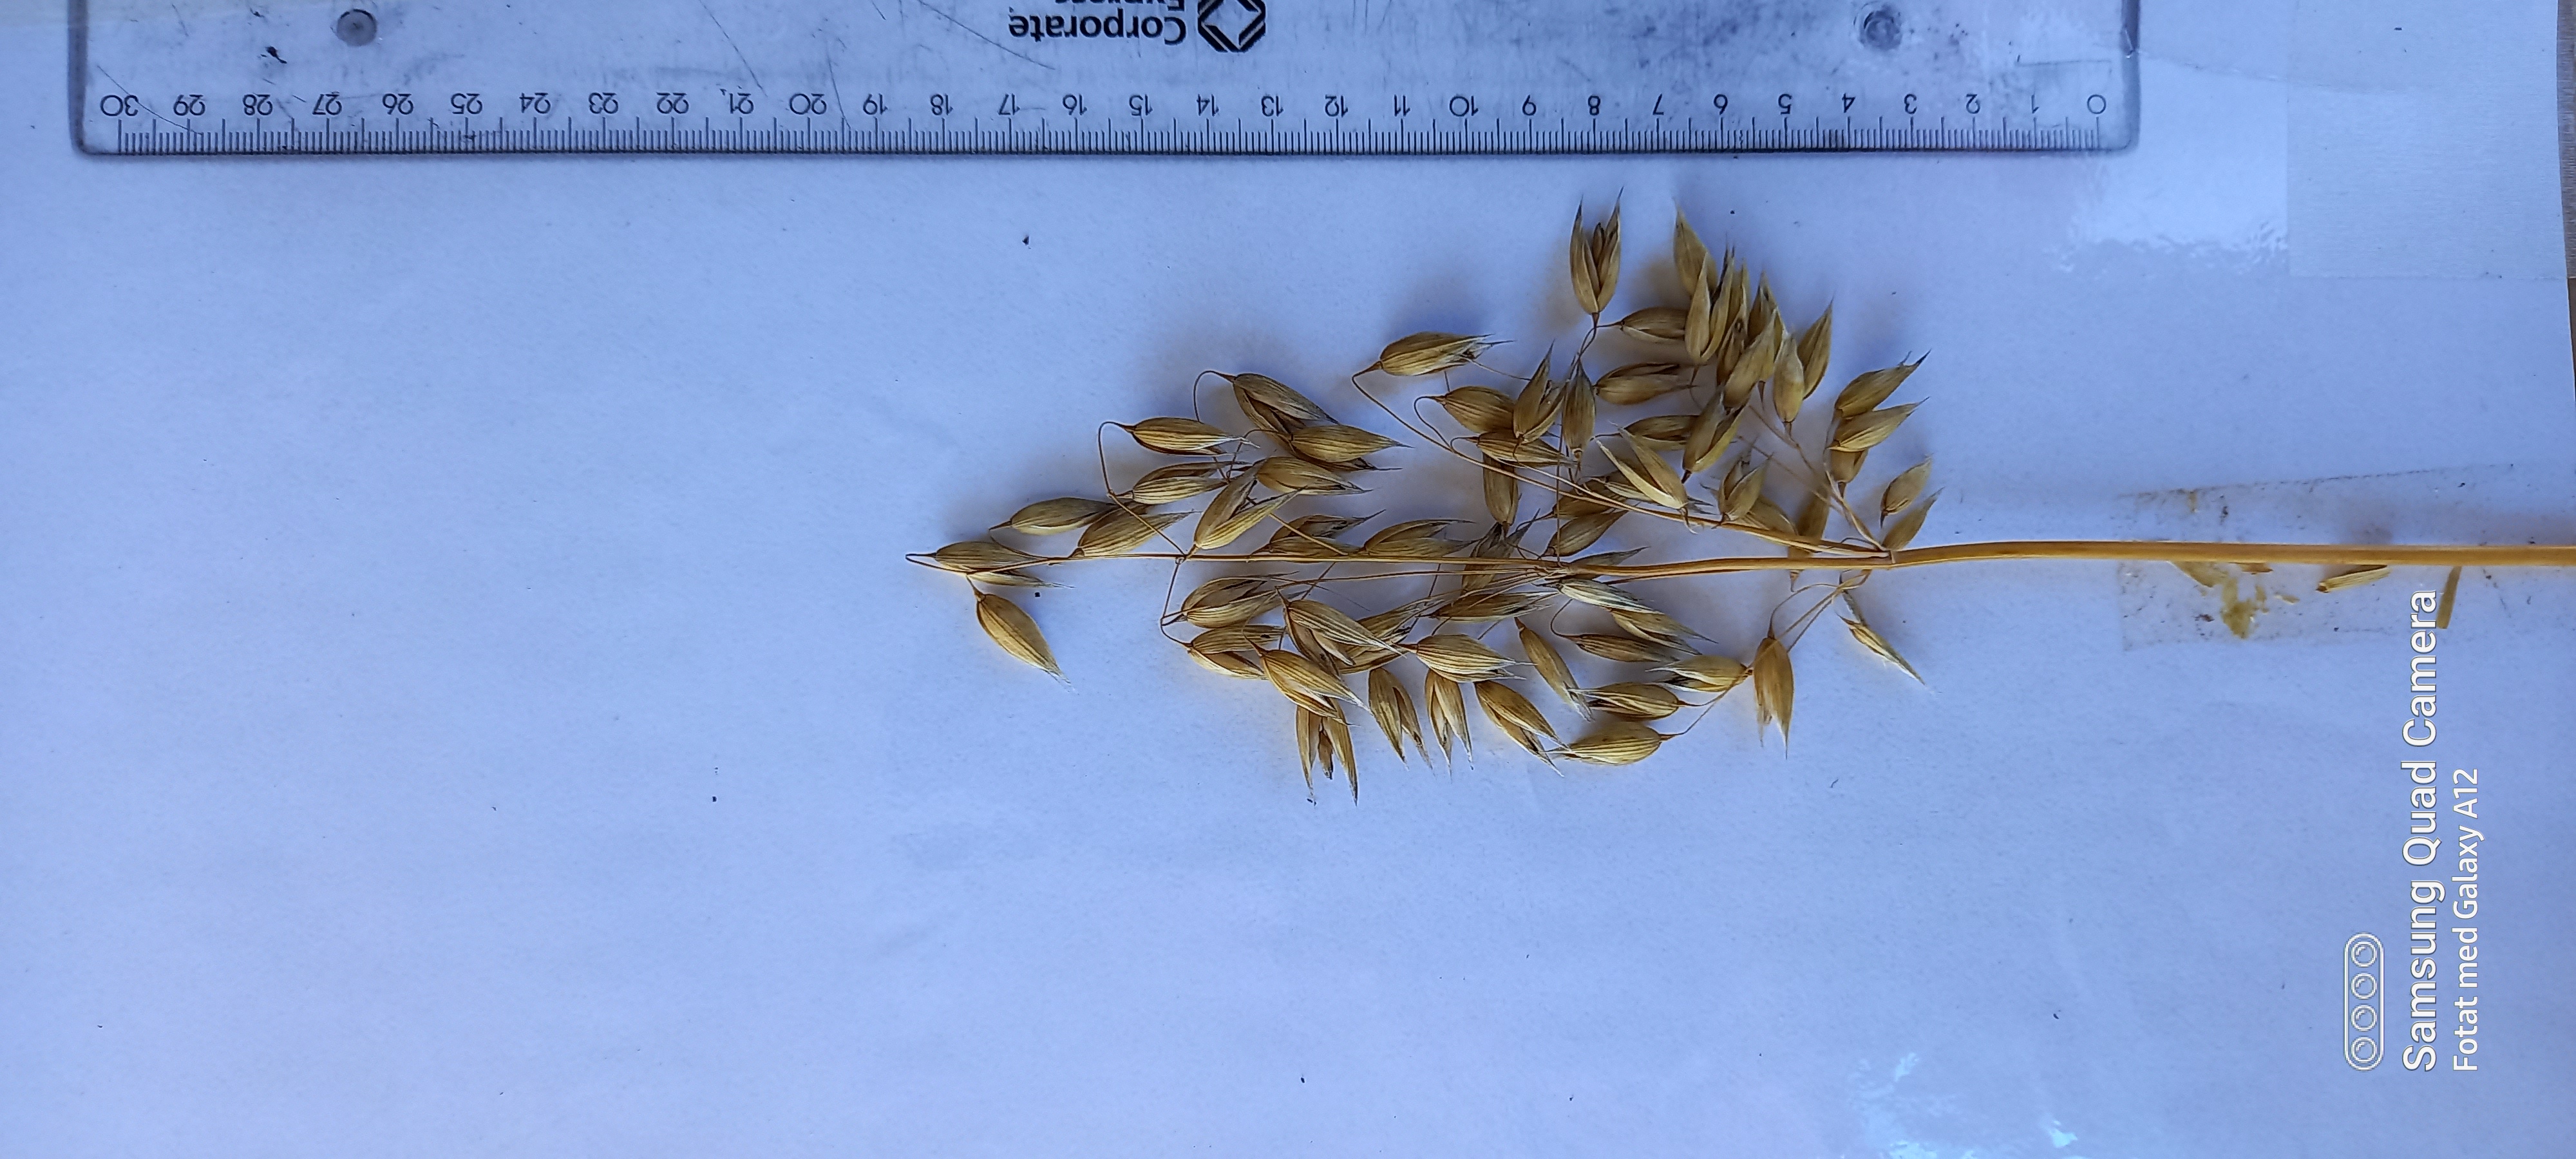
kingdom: Plantae
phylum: Tracheophyta
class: Liliopsida
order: Poales
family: Poaceae
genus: Avena
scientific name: Avena sativa
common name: Oat
